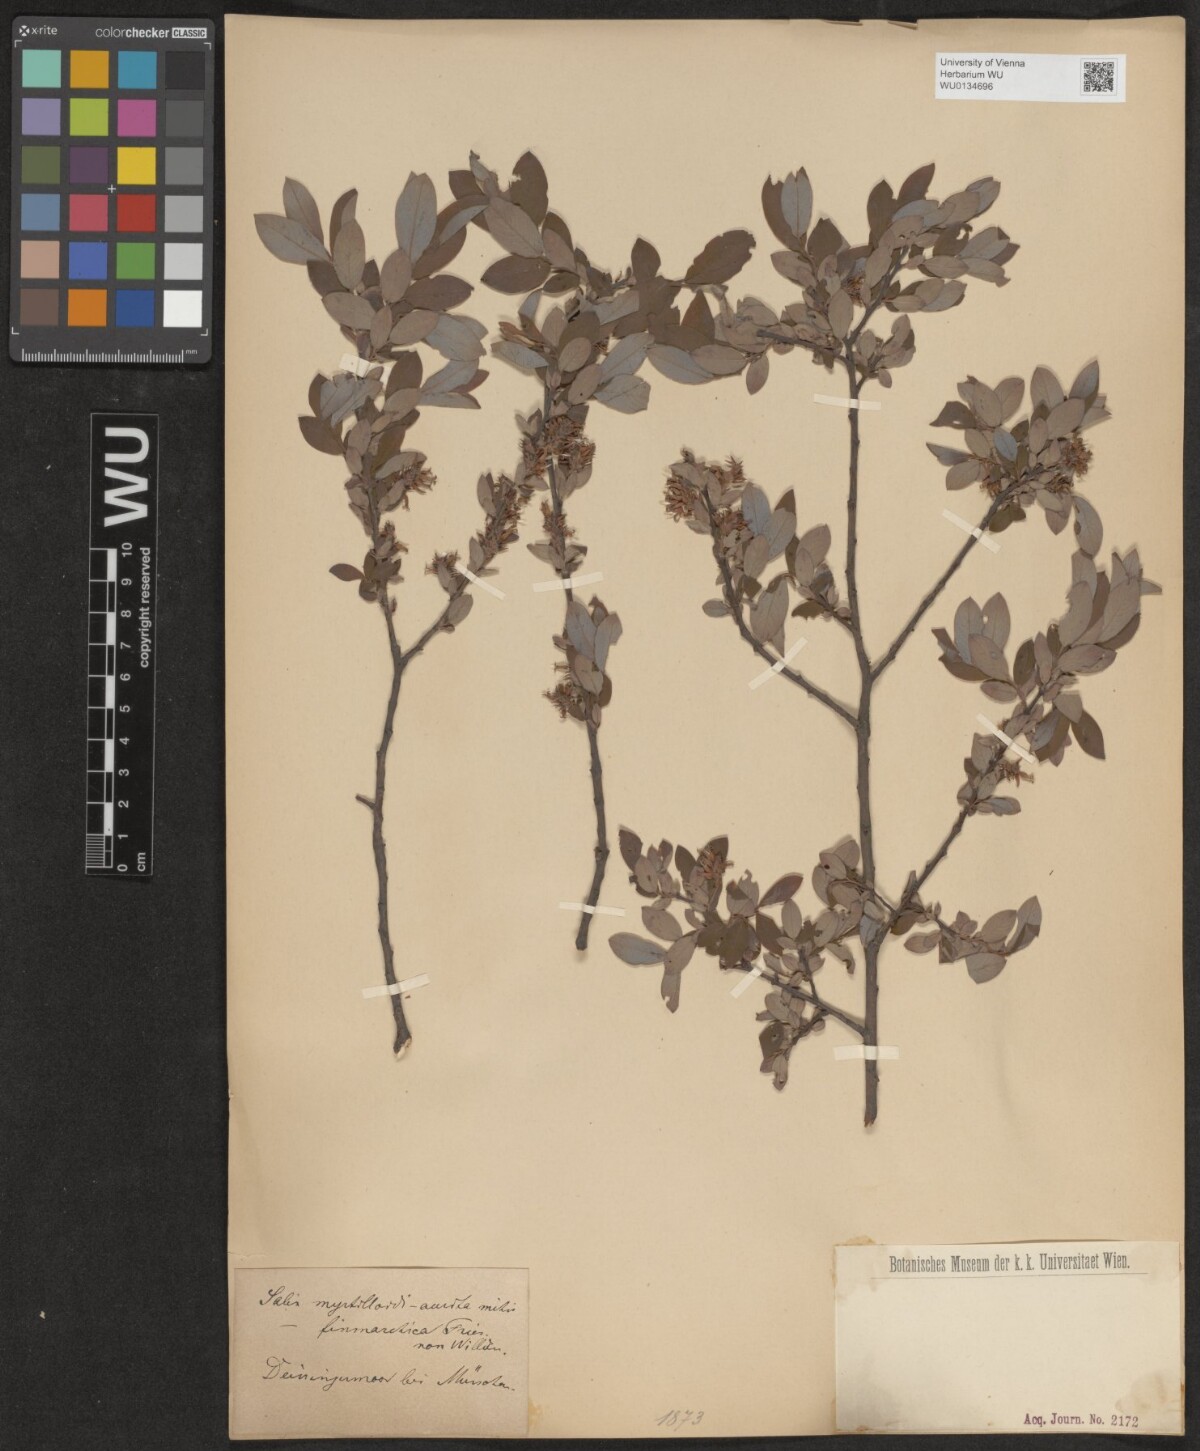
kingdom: Plantae
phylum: Tracheophyta
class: Magnoliopsida
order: Malpighiales
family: Salicaceae
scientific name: Salicaceae
